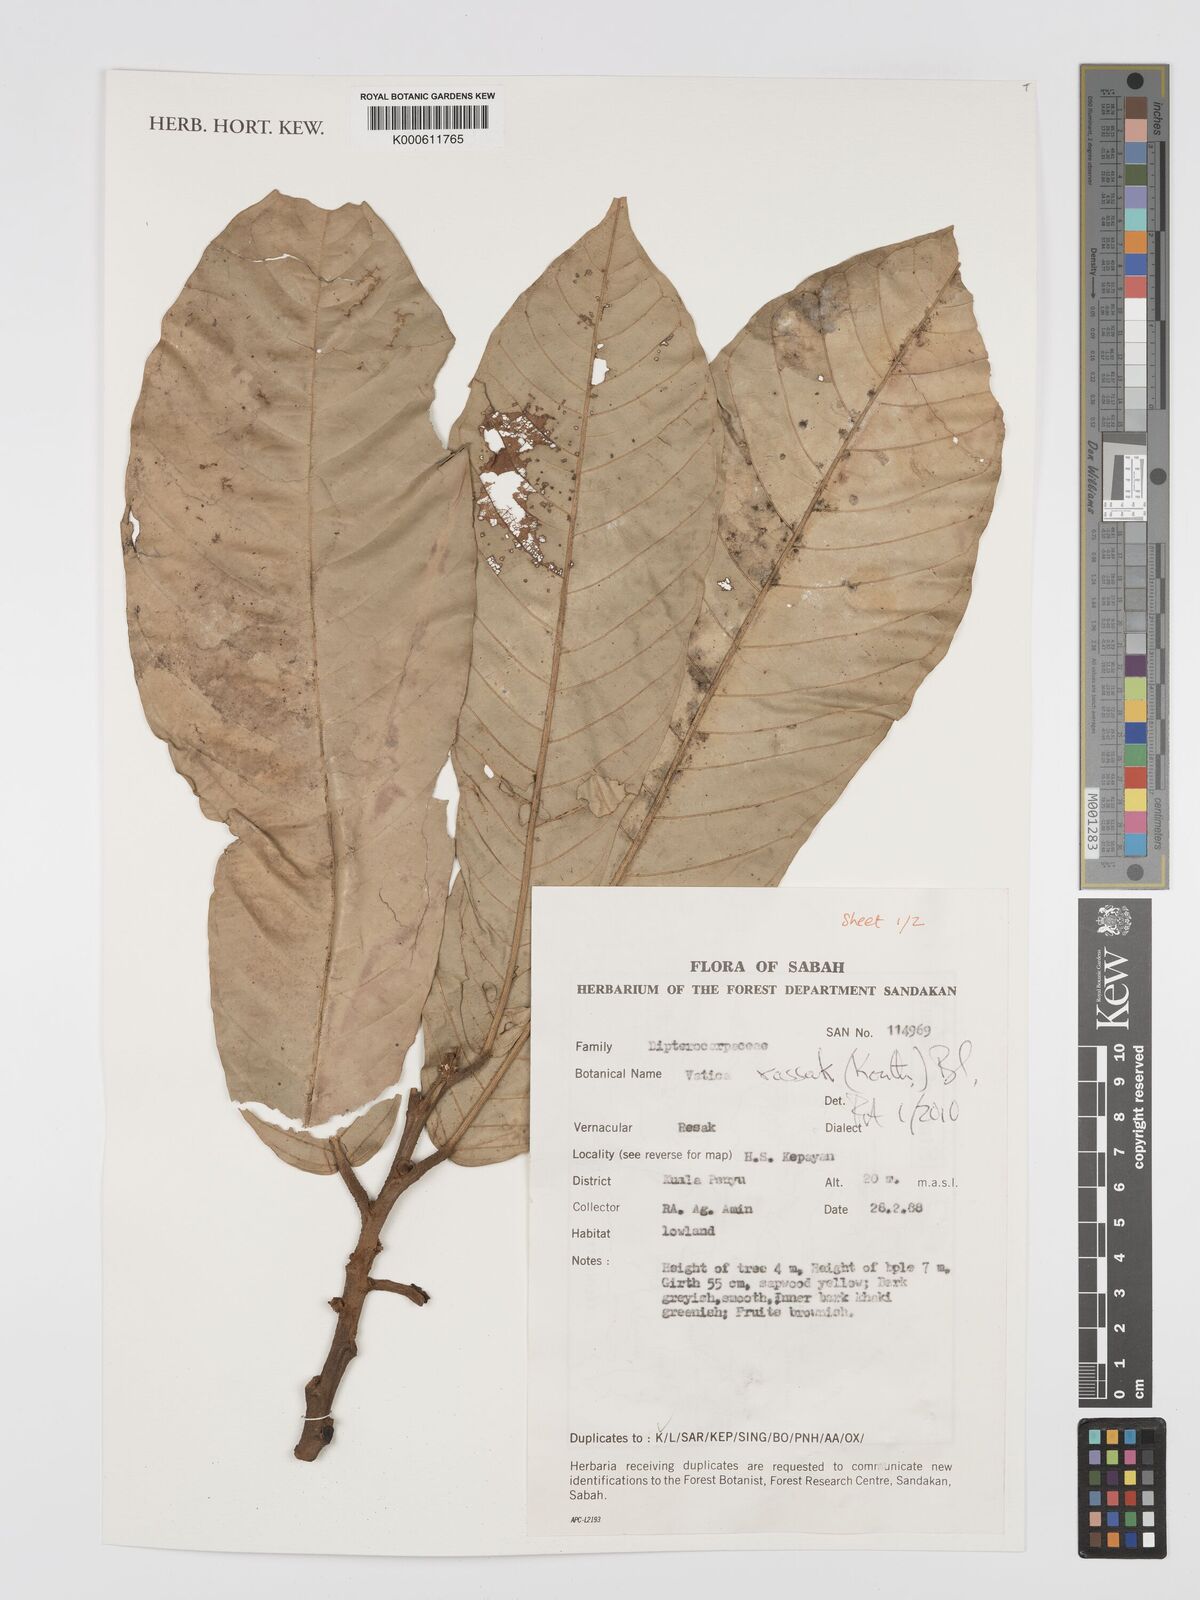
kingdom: Plantae
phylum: Tracheophyta
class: Magnoliopsida
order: Malvales
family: Dipterocarpaceae
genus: Vatica
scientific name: Vatica rassak
